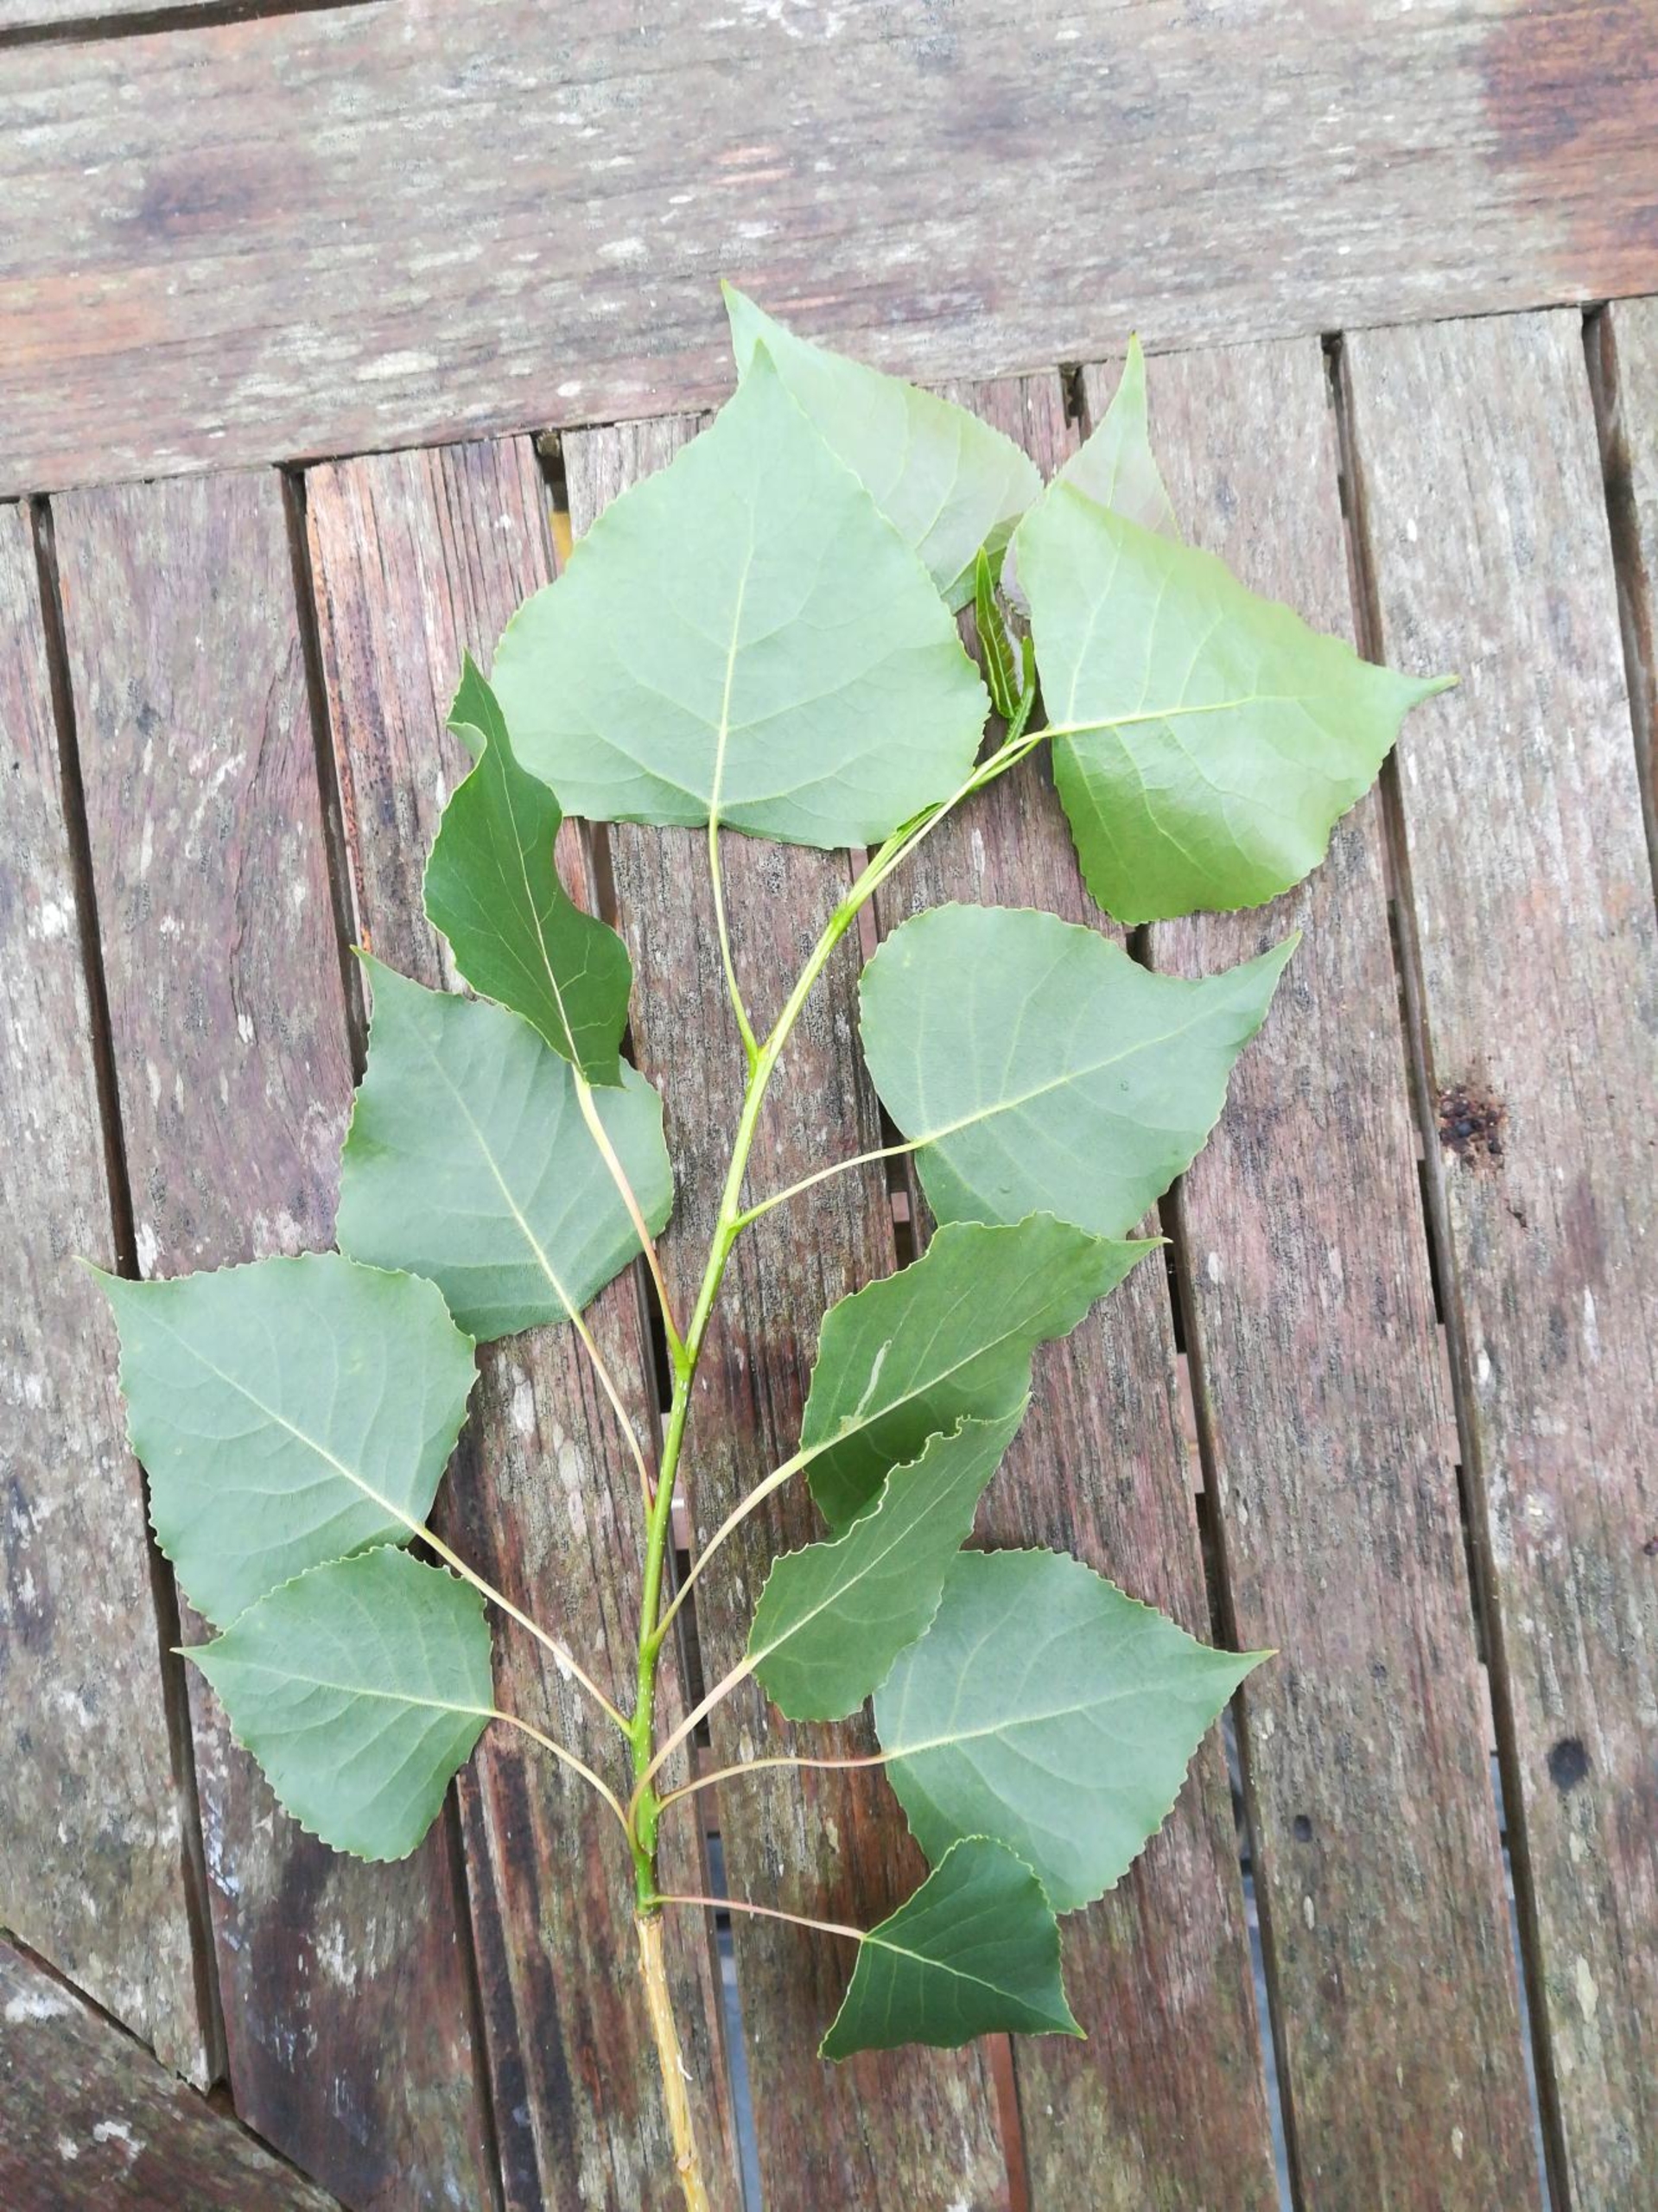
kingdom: Plantae
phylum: Tracheophyta
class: Magnoliopsida
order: Malpighiales
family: Salicaceae
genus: Populus
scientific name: Populus nigra
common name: Sort-poppel
